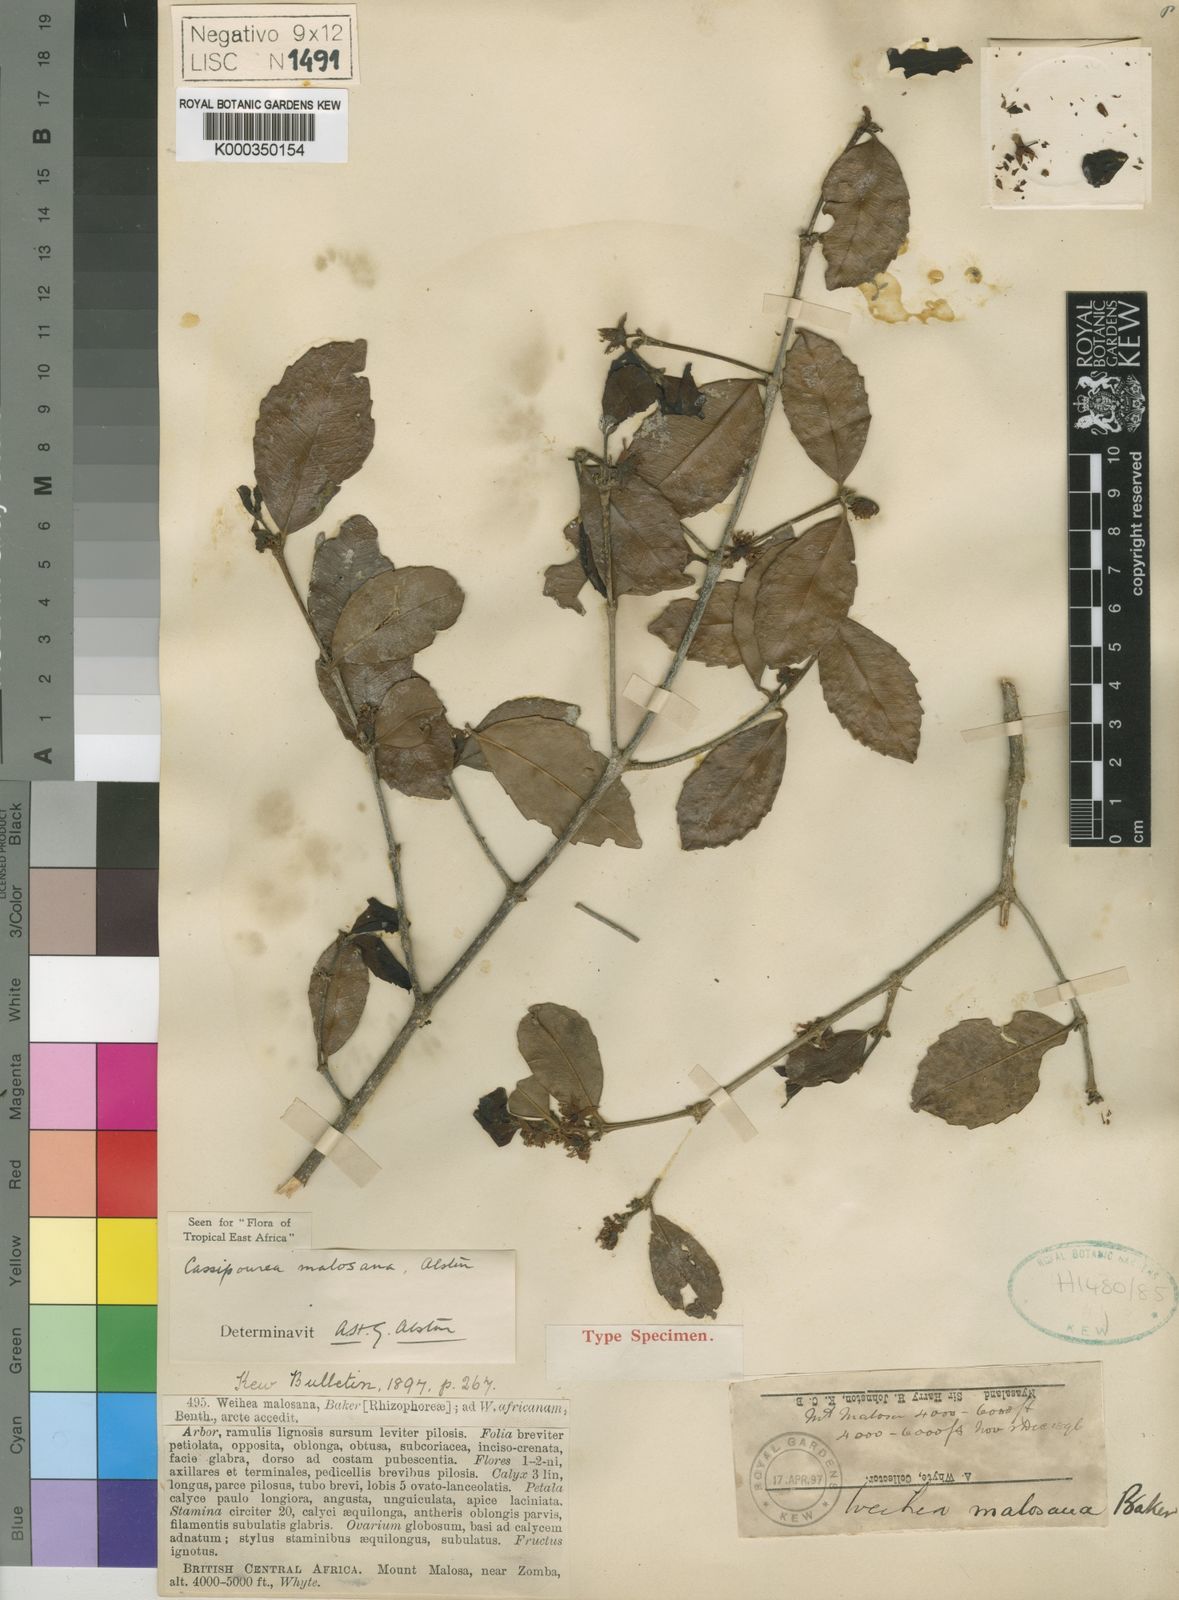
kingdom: Plantae
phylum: Tracheophyta
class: Magnoliopsida
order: Malpighiales
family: Rhizophoraceae
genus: Cassipourea
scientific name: Cassipourea malosana
